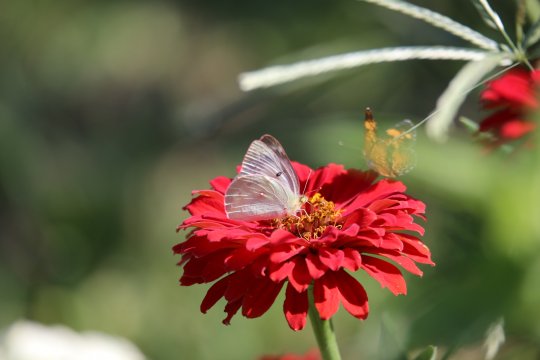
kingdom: Animalia
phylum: Arthropoda
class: Insecta
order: Lepidoptera
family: Pieridae
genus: Colias
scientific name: Colias philodice
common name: Clouded Sulphur
